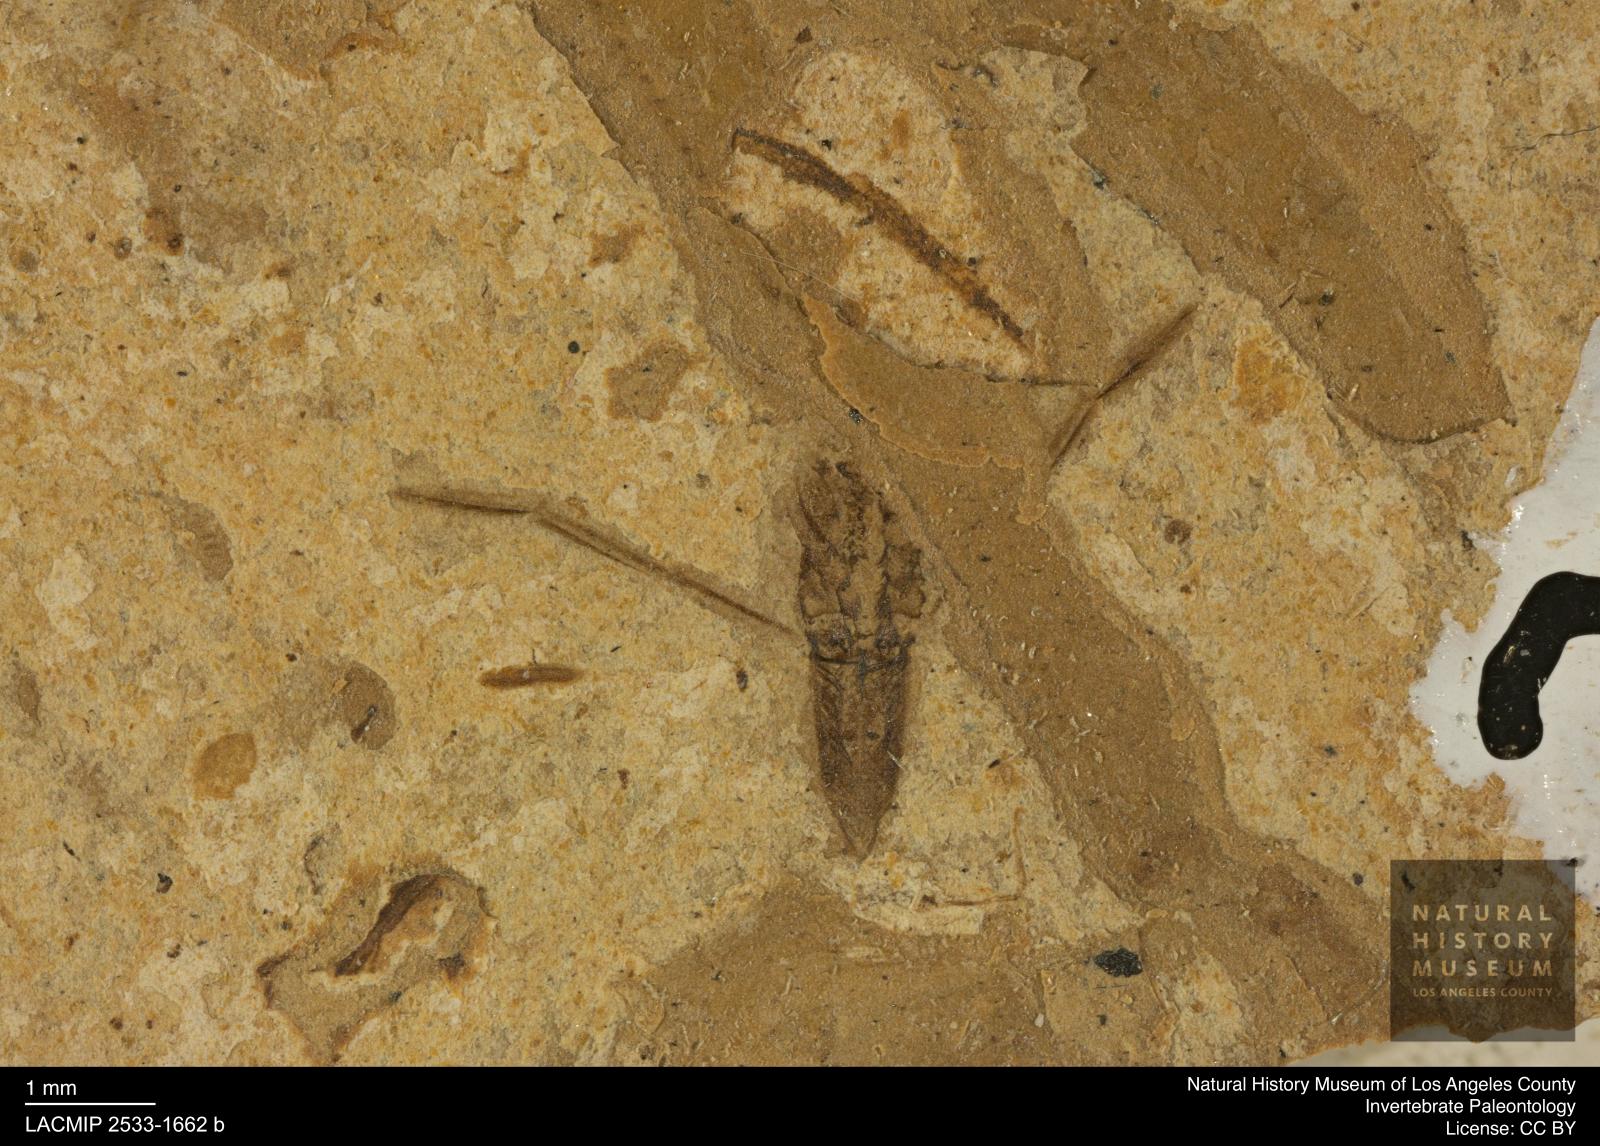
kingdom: Animalia
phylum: Arthropoda
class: Insecta
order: Hemiptera
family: Notonectidae
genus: Notonecta
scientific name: Notonecta
